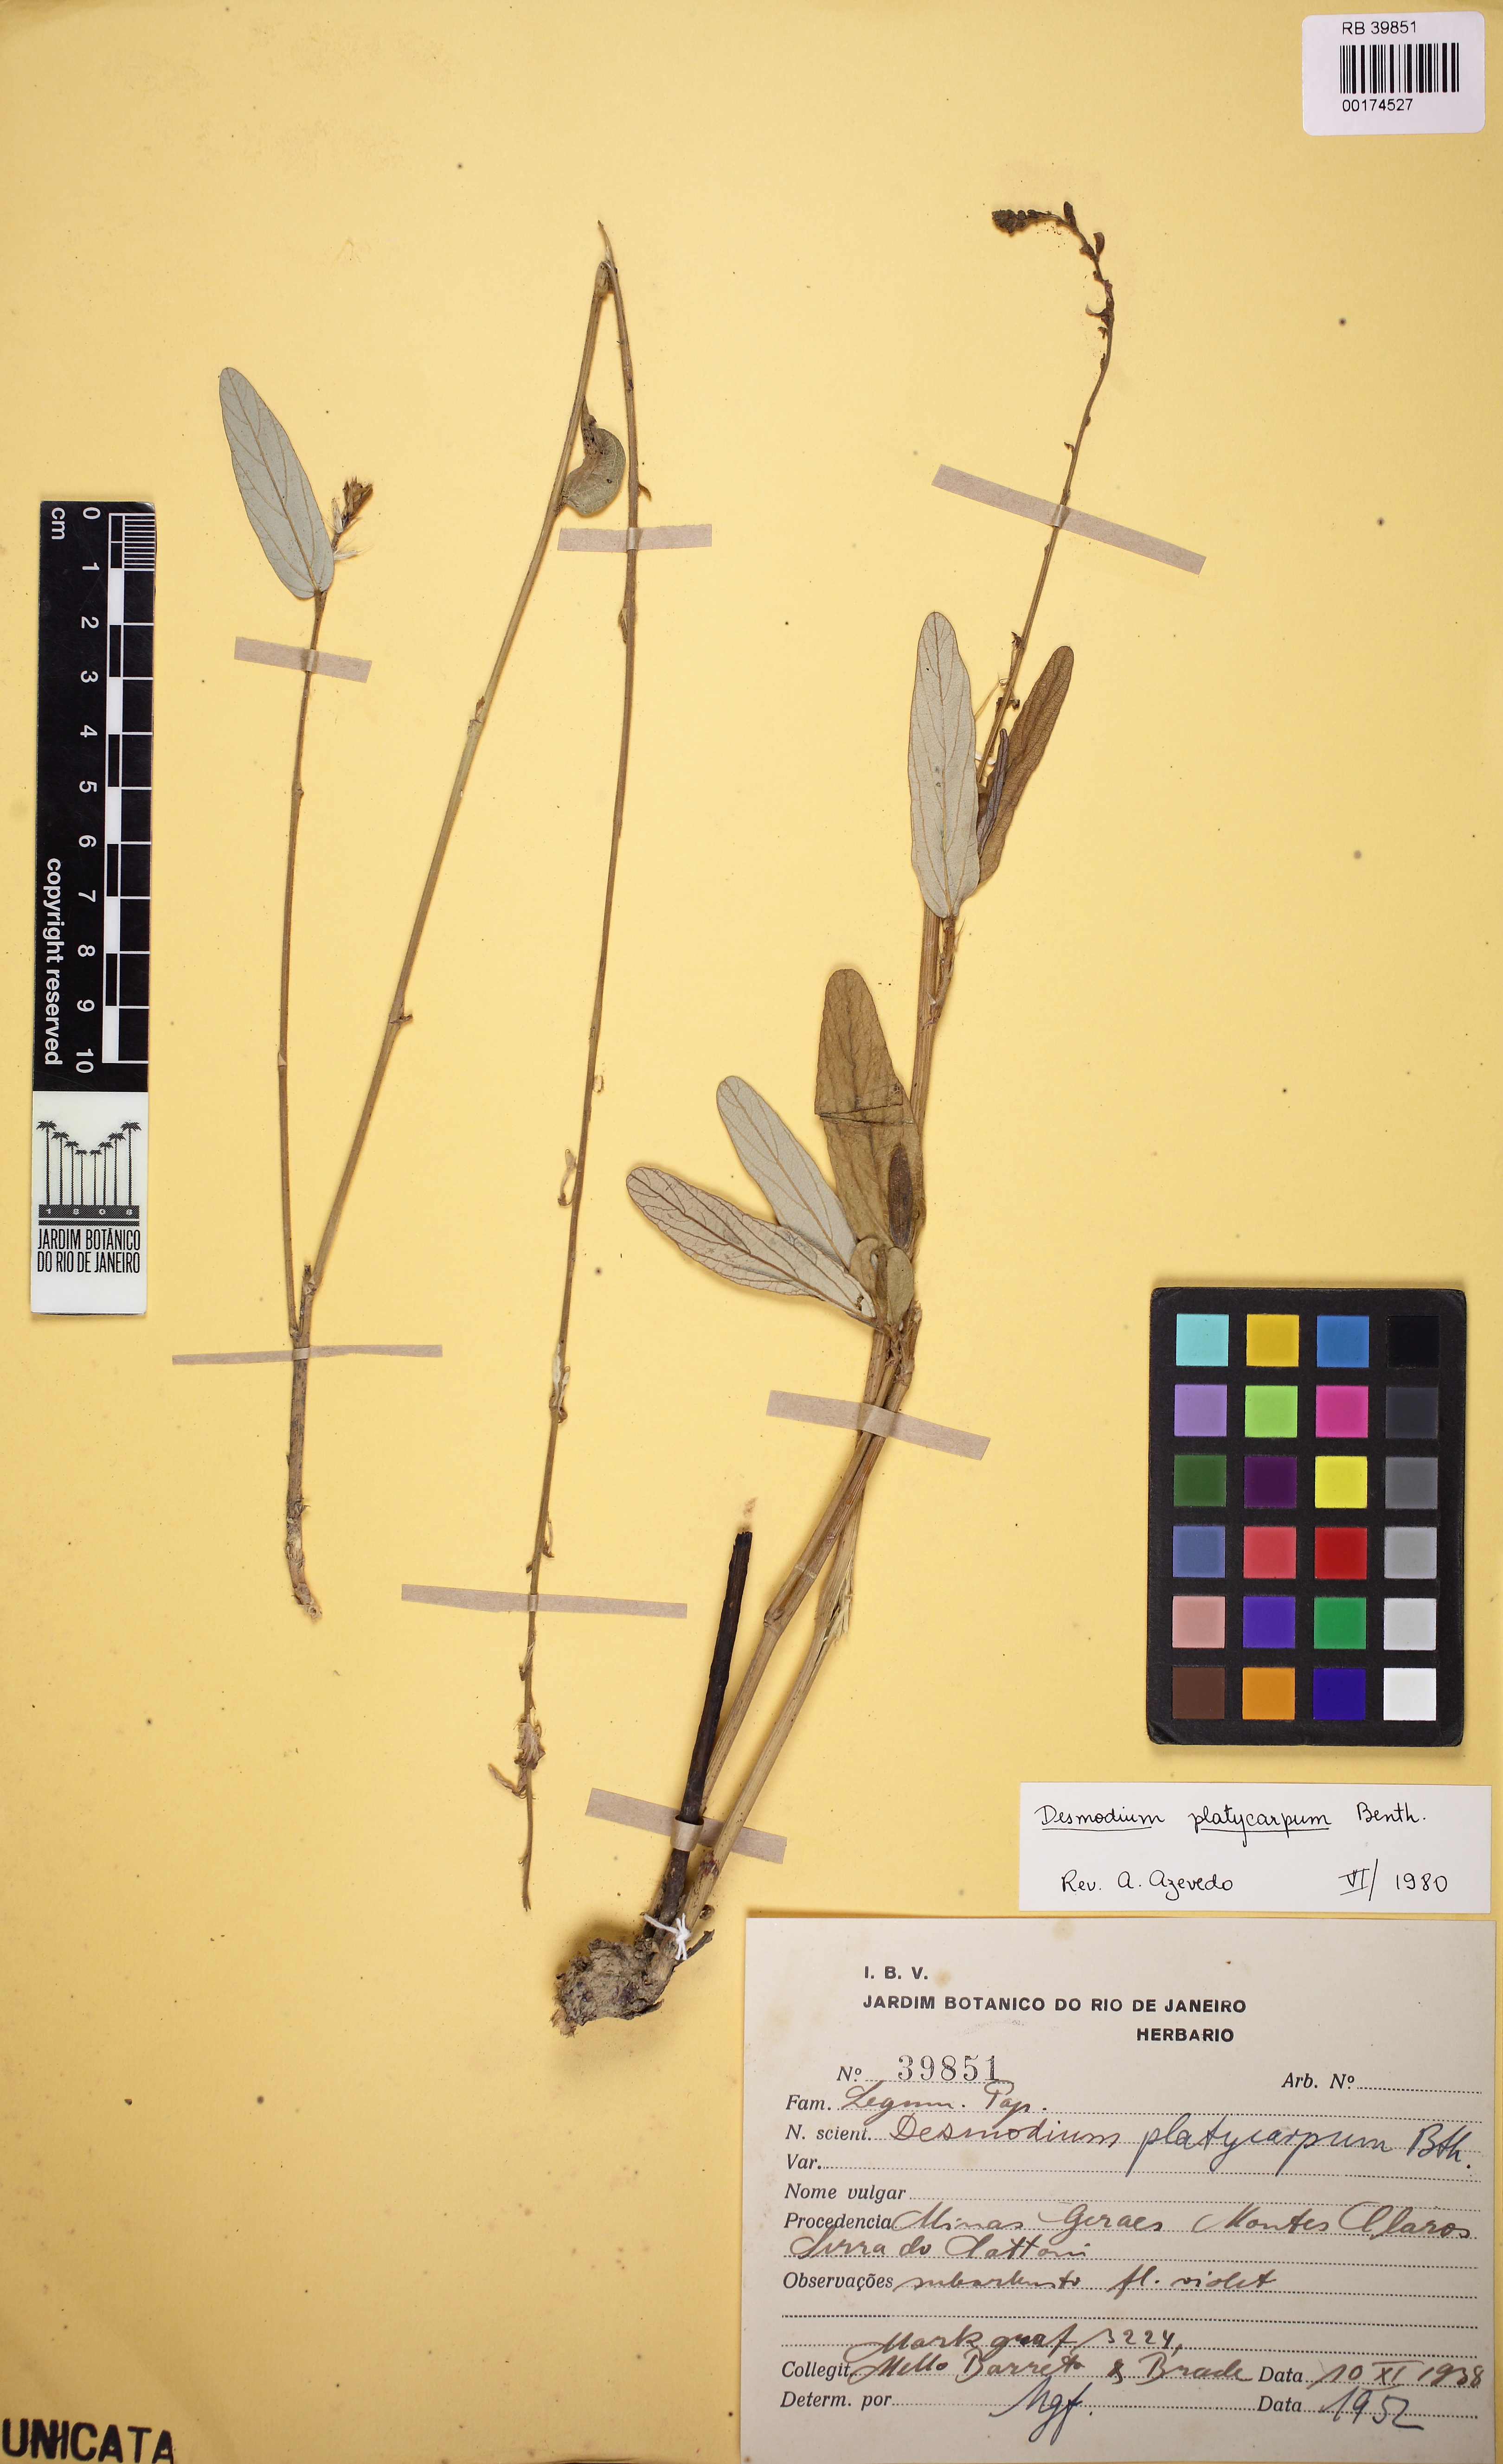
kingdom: Plantae
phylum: Tracheophyta
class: Magnoliopsida
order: Fabales
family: Fabaceae
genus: Desmodium
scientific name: Desmodium platycarpum
